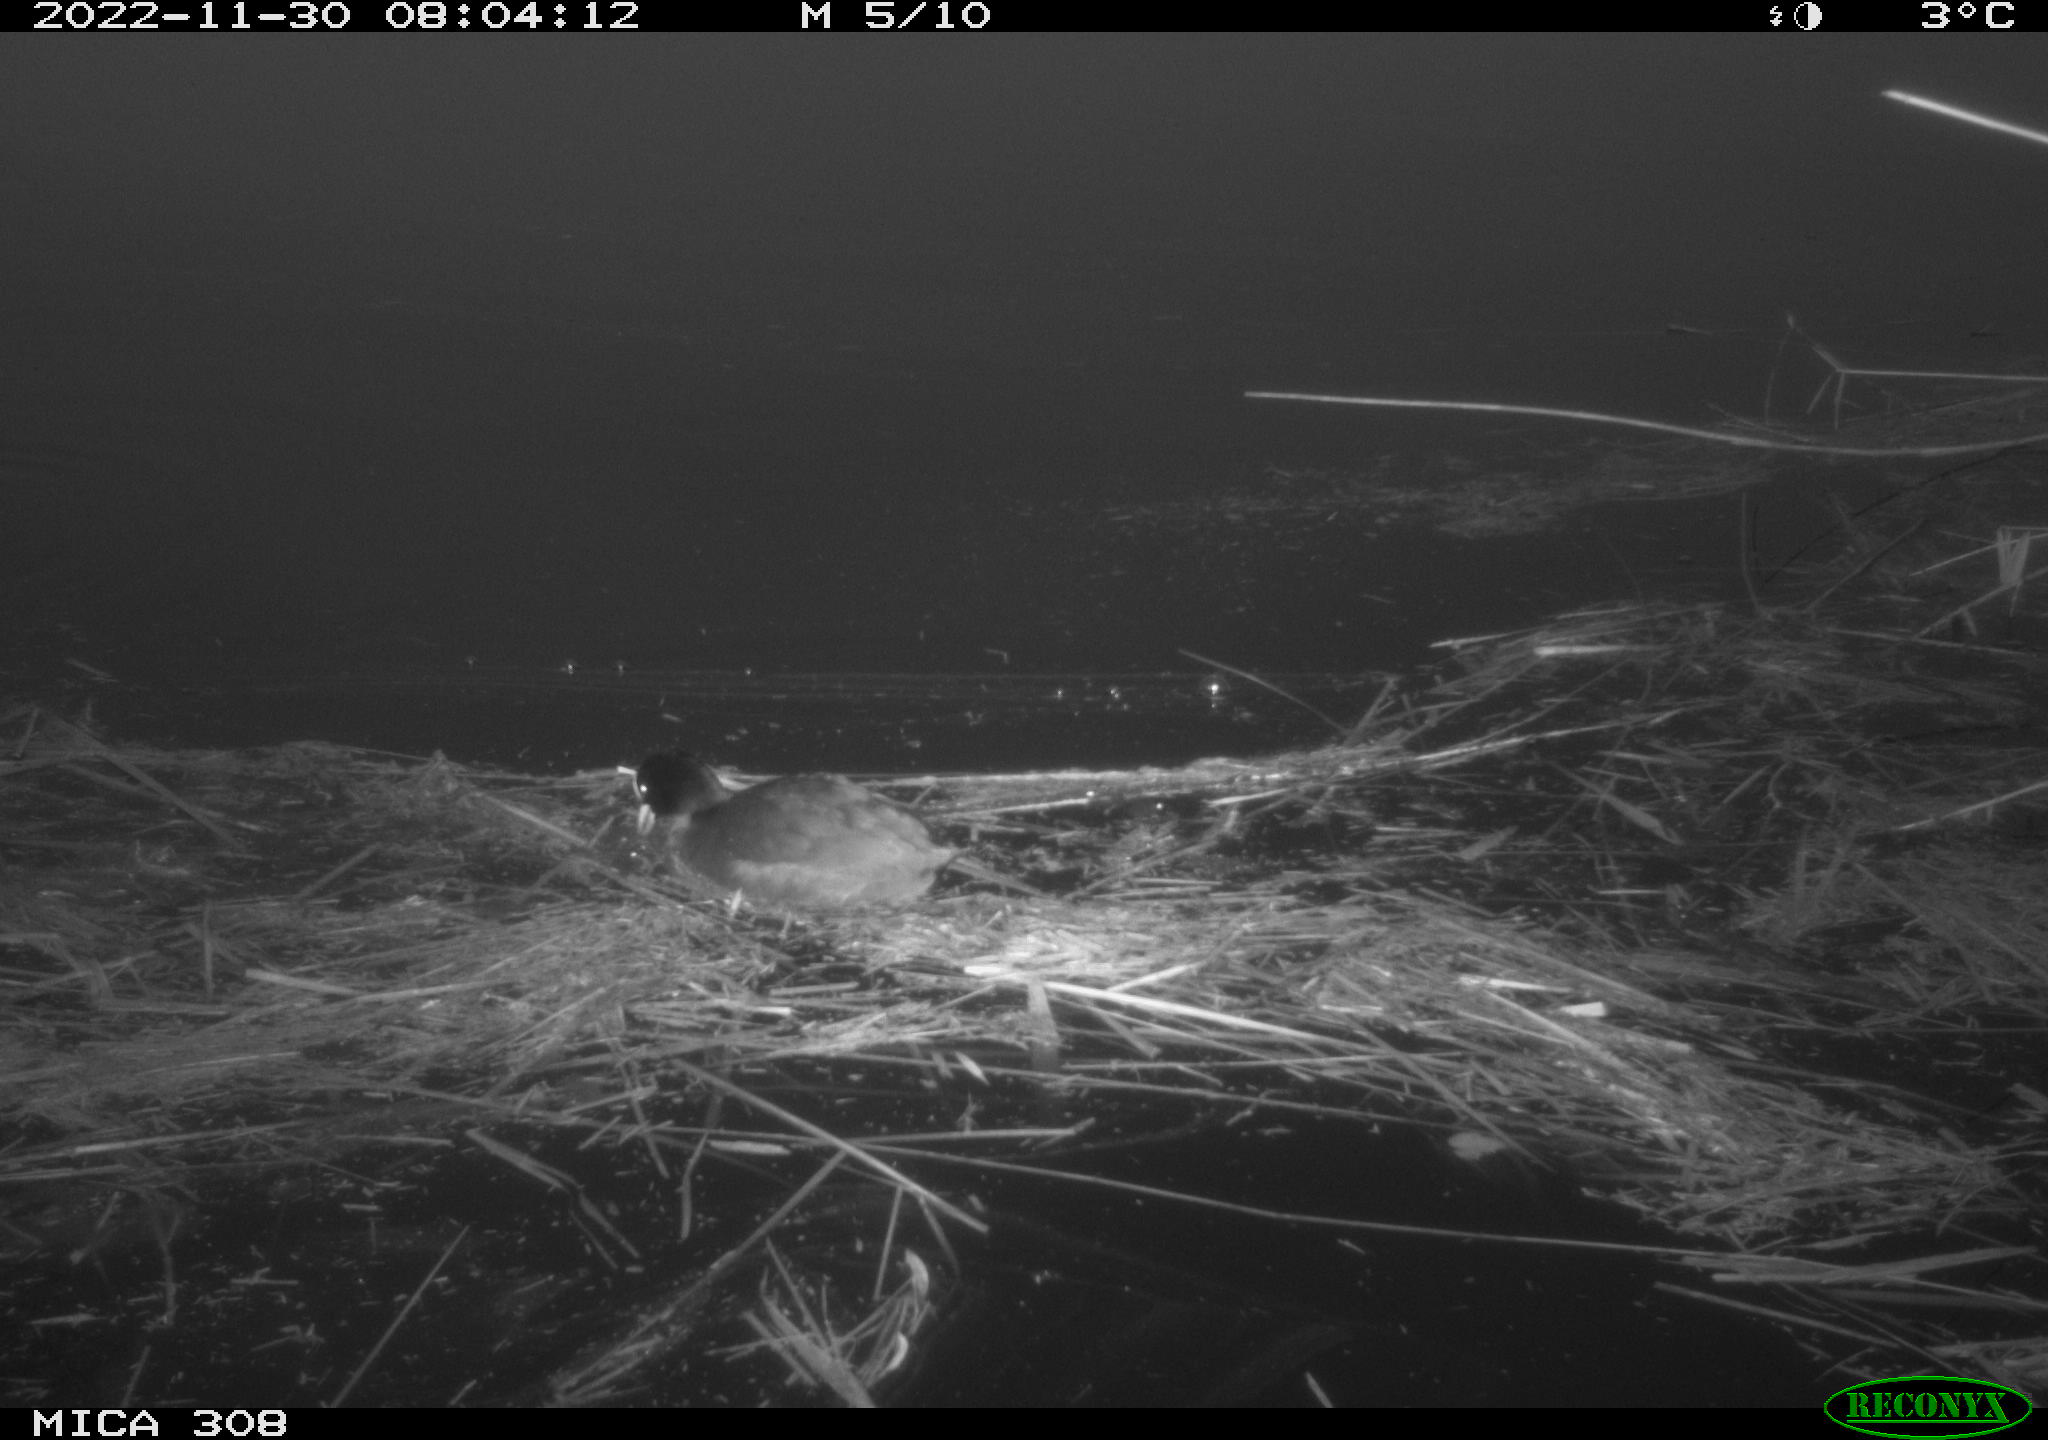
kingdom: Animalia
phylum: Chordata
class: Aves
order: Gruiformes
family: Rallidae
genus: Fulica
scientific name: Fulica atra
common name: Eurasian coot
